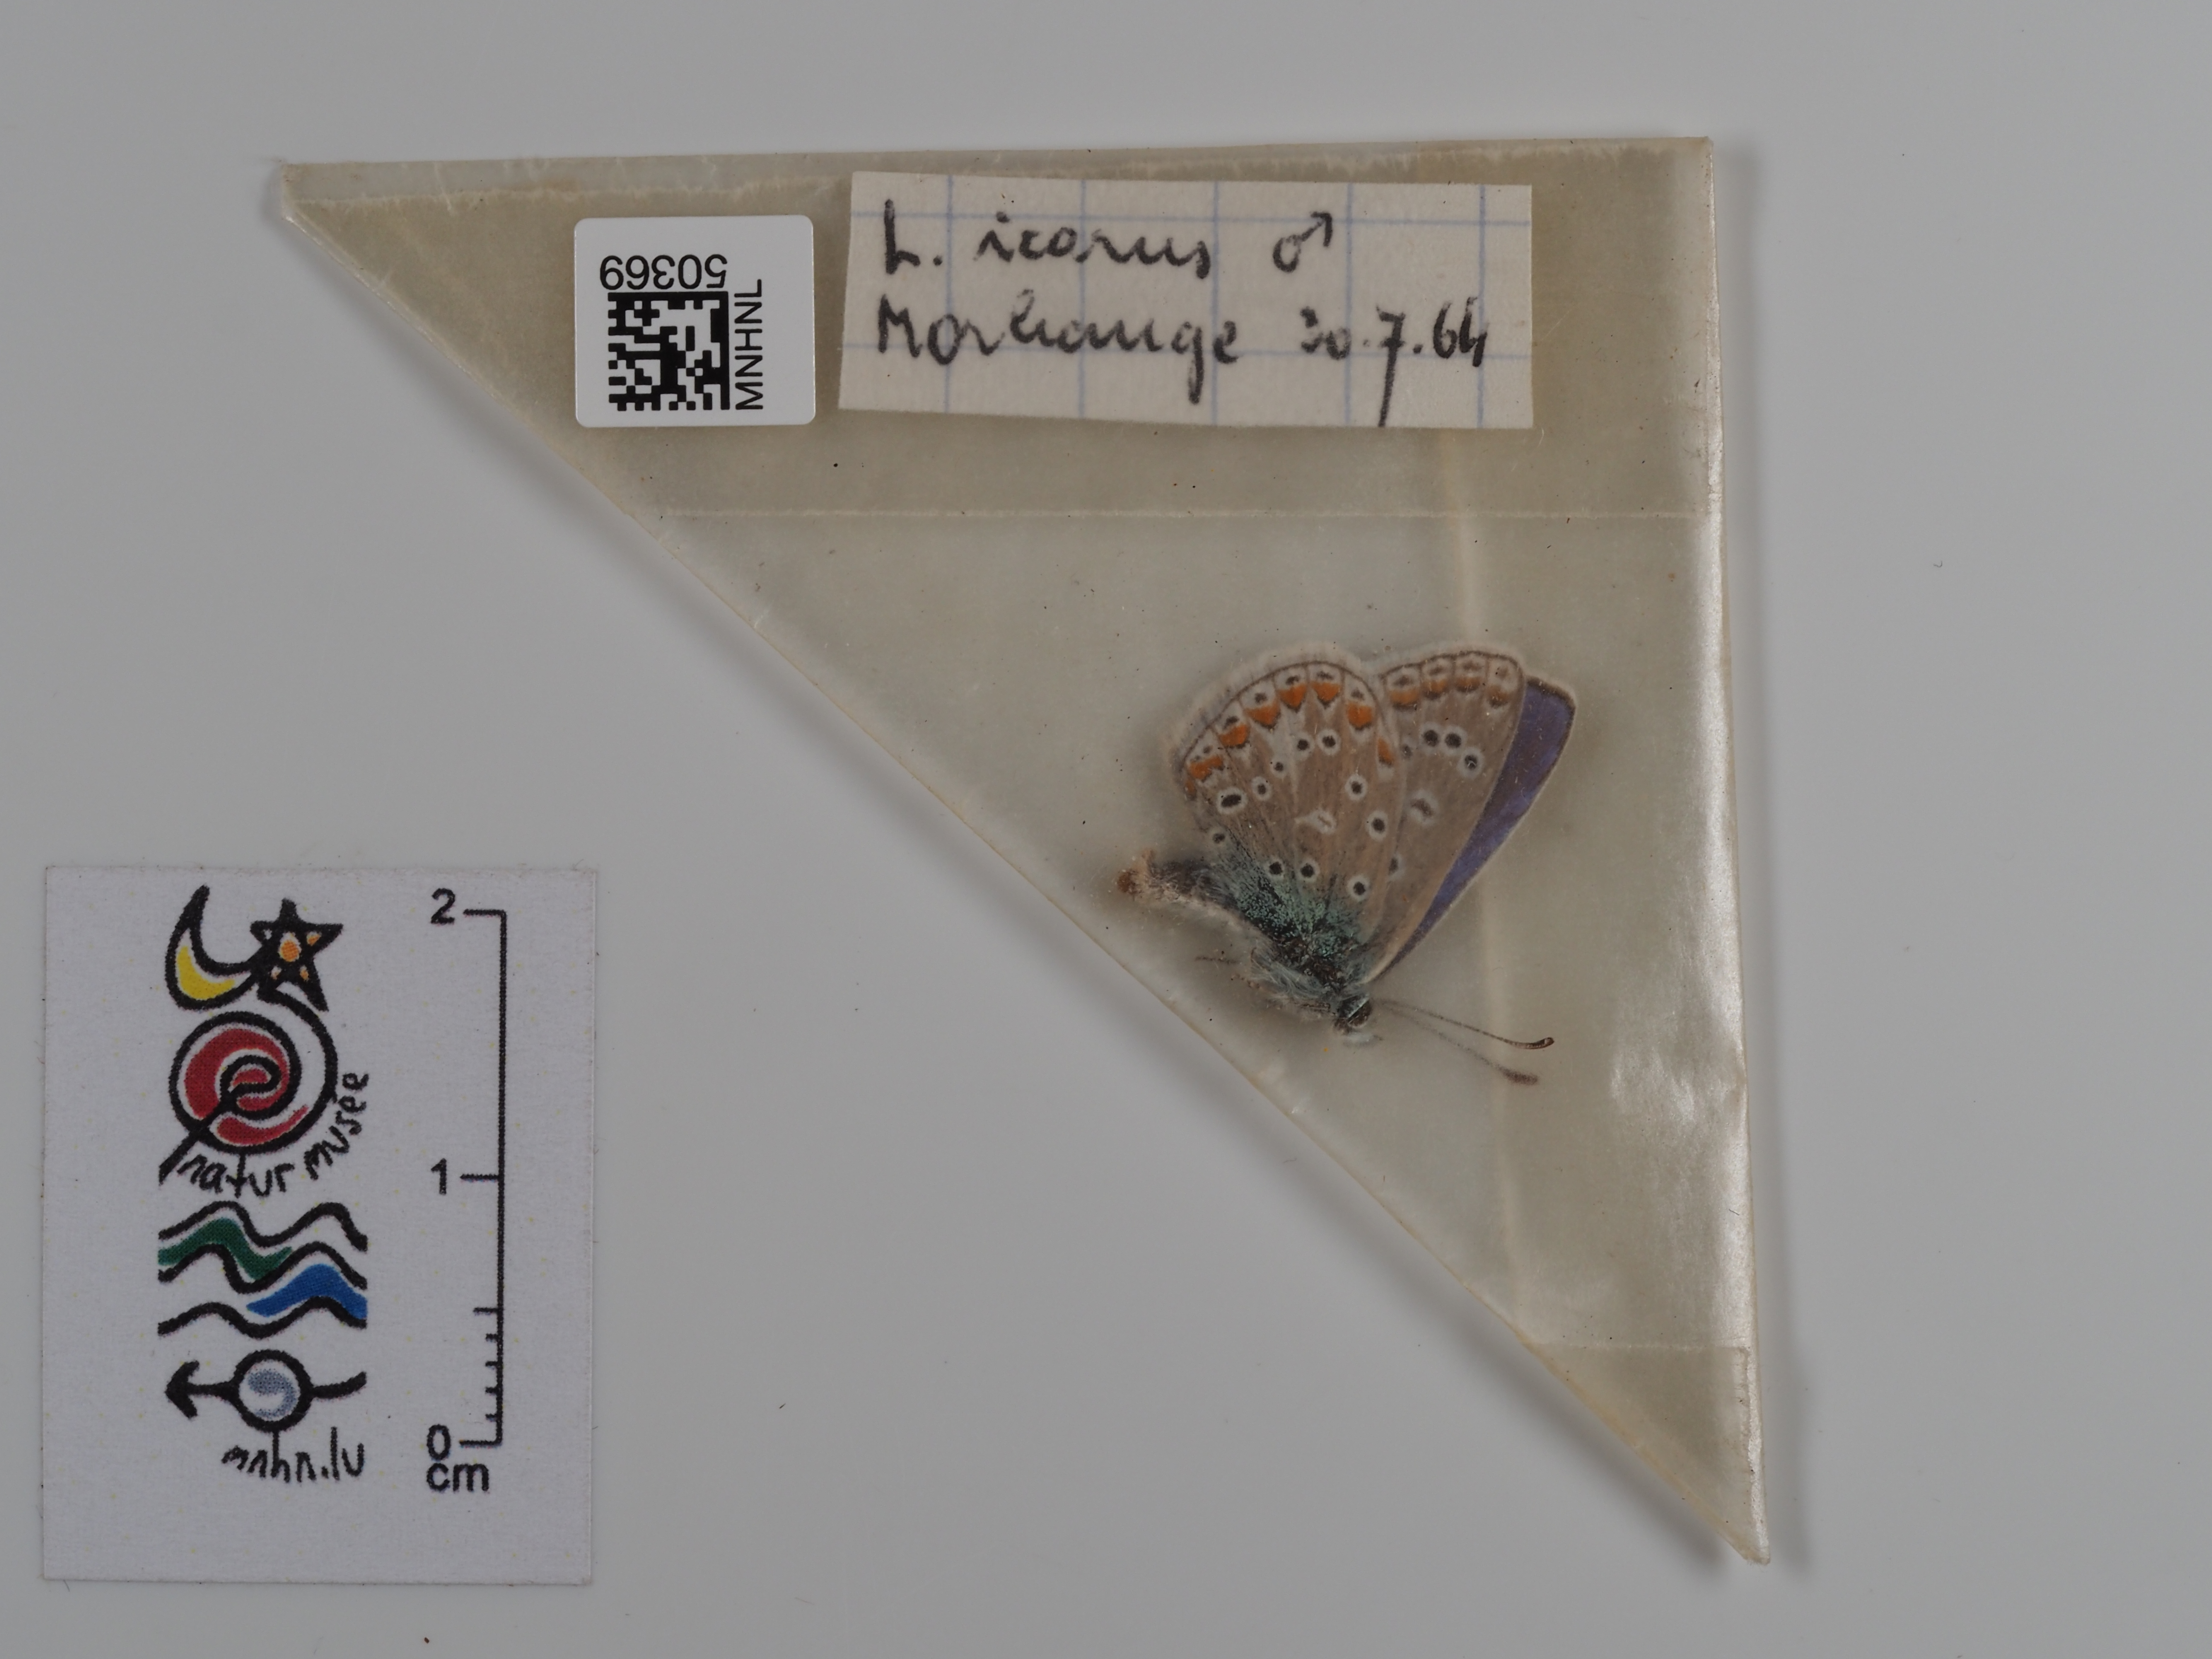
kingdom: Animalia
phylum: Arthropoda
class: Insecta
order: Lepidoptera
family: Lycaenidae
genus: Polyommatus
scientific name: Polyommatus icarus
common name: Common blue
